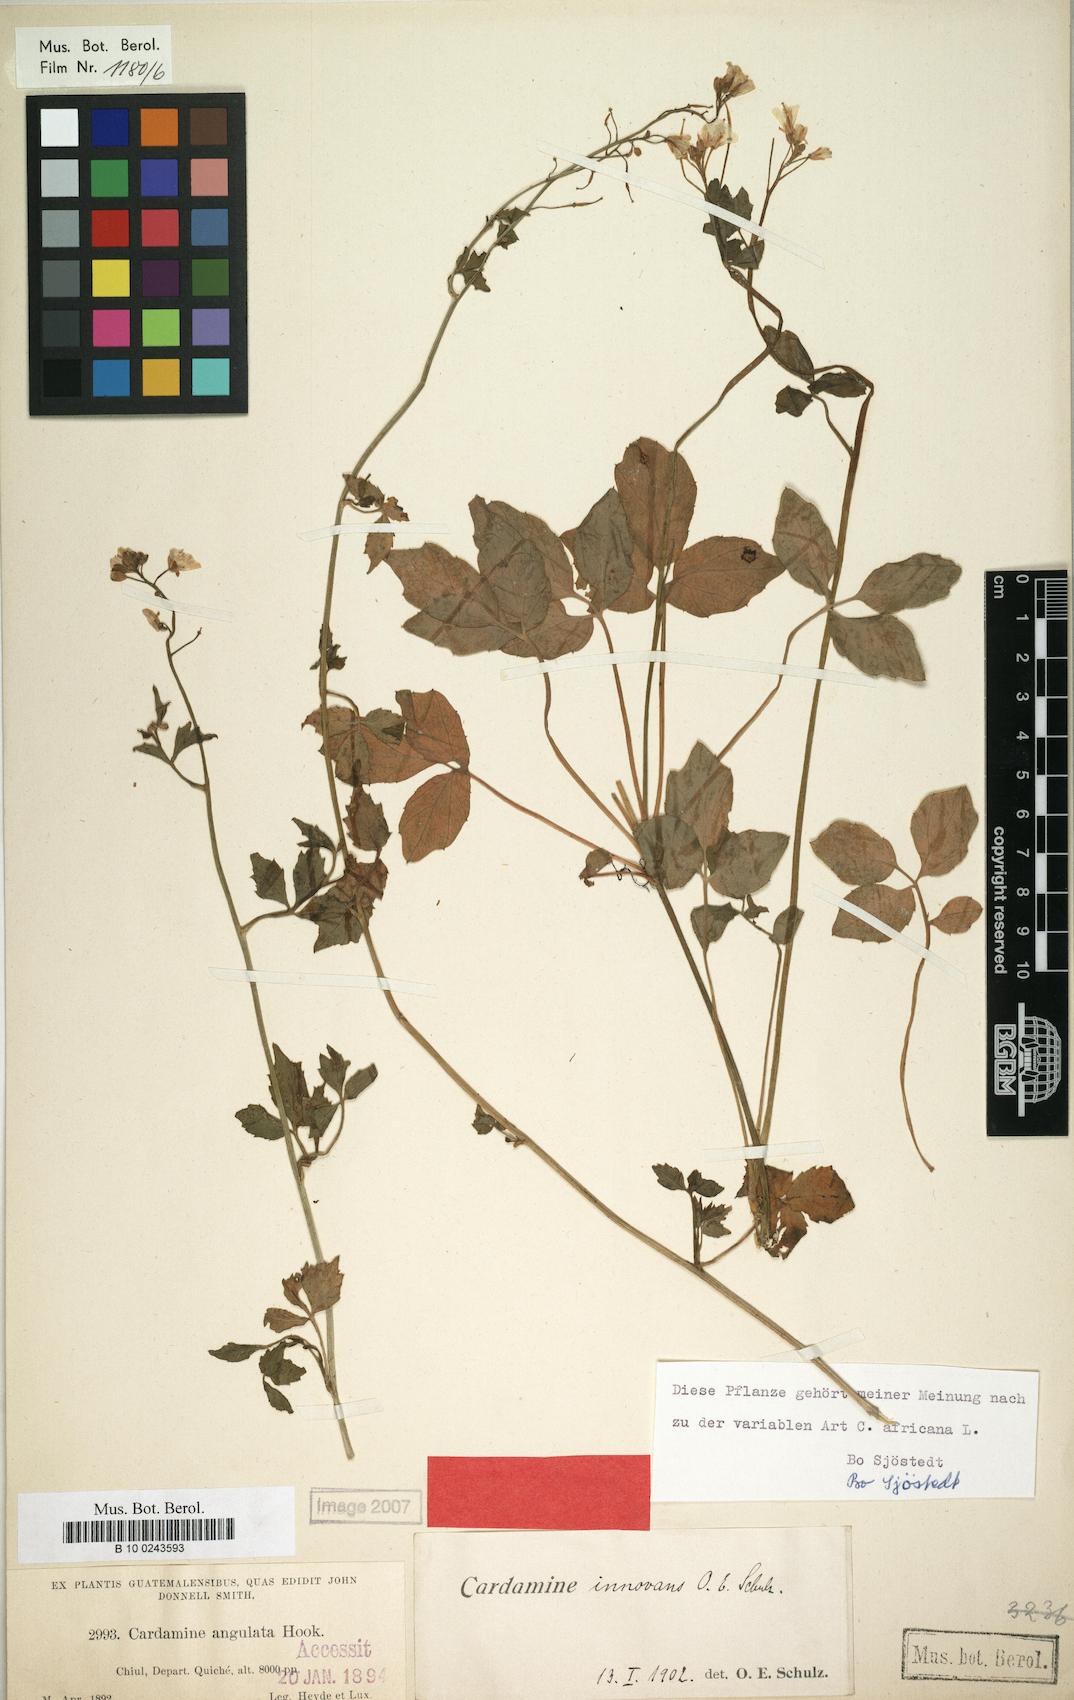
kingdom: Plantae
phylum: Tracheophyta
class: Magnoliopsida
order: Brassicales
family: Brassicaceae
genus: Cardamine
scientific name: Cardamine innovans
